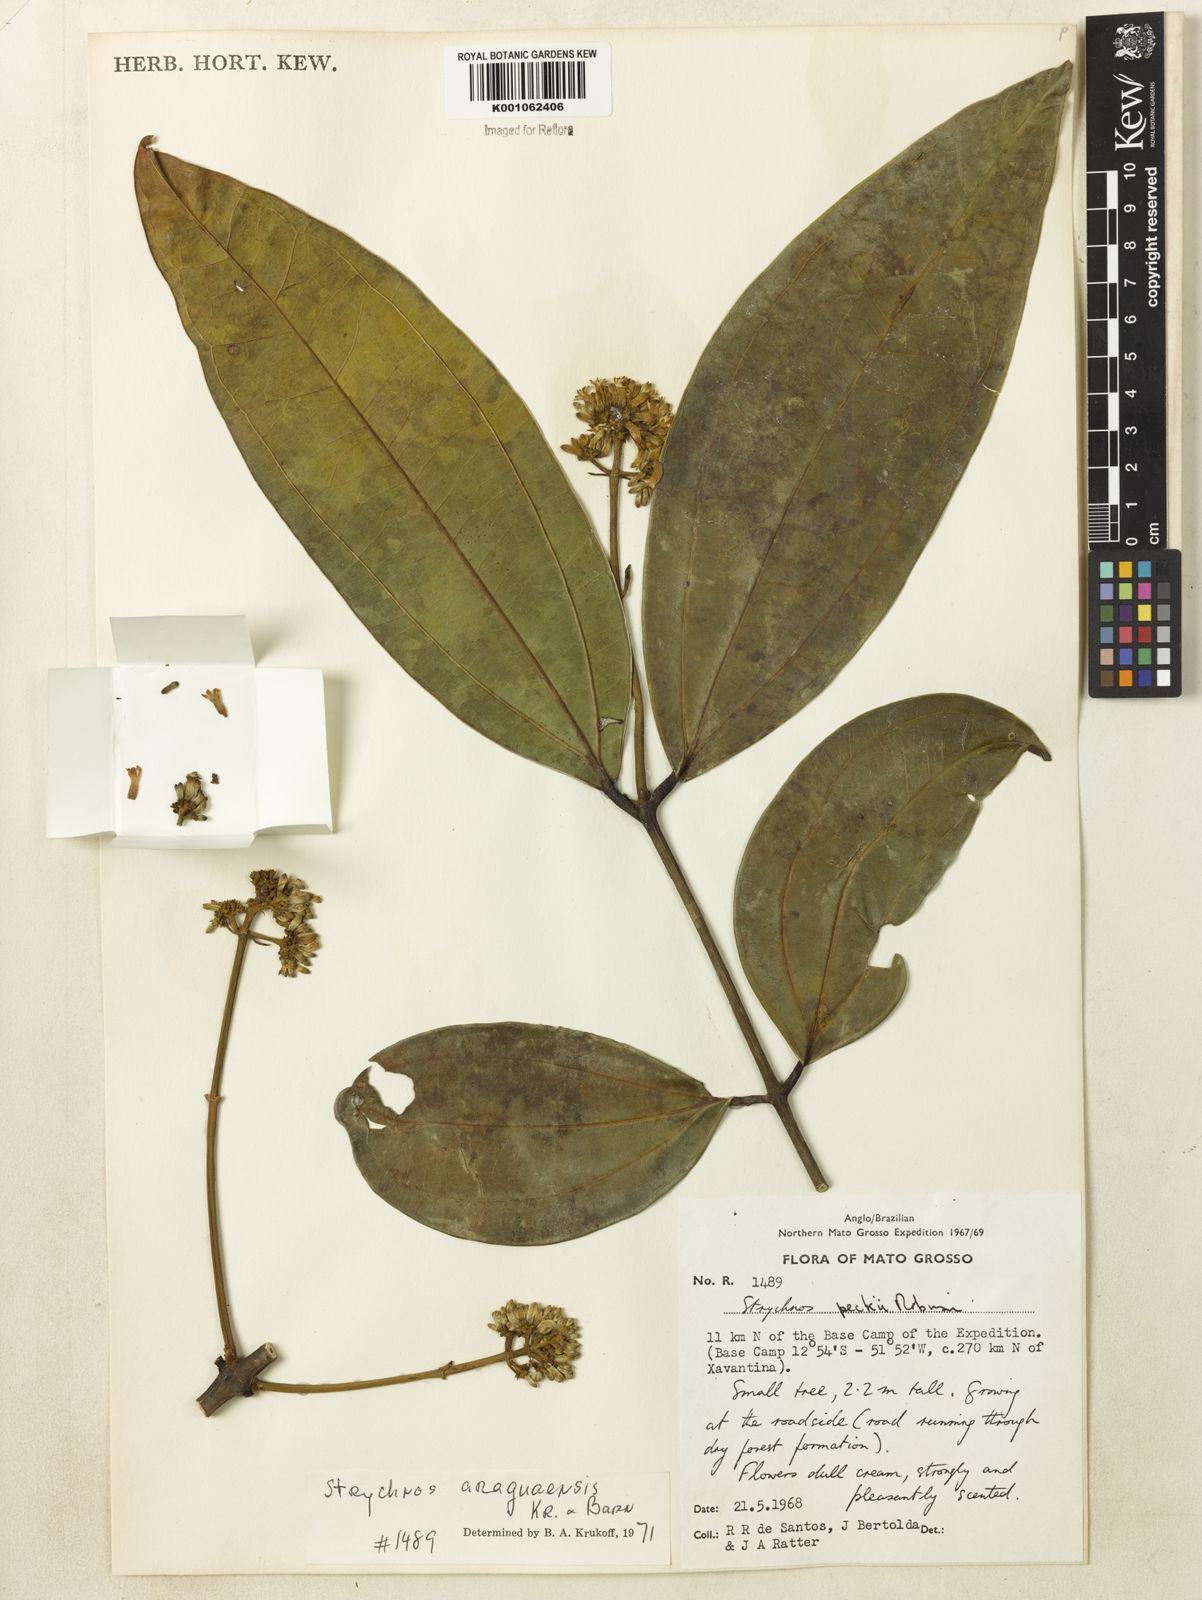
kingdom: Plantae
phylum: Tracheophyta
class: Magnoliopsida
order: Gentianales
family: Loganiaceae
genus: Strychnos
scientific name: Strychnos araguaensis
